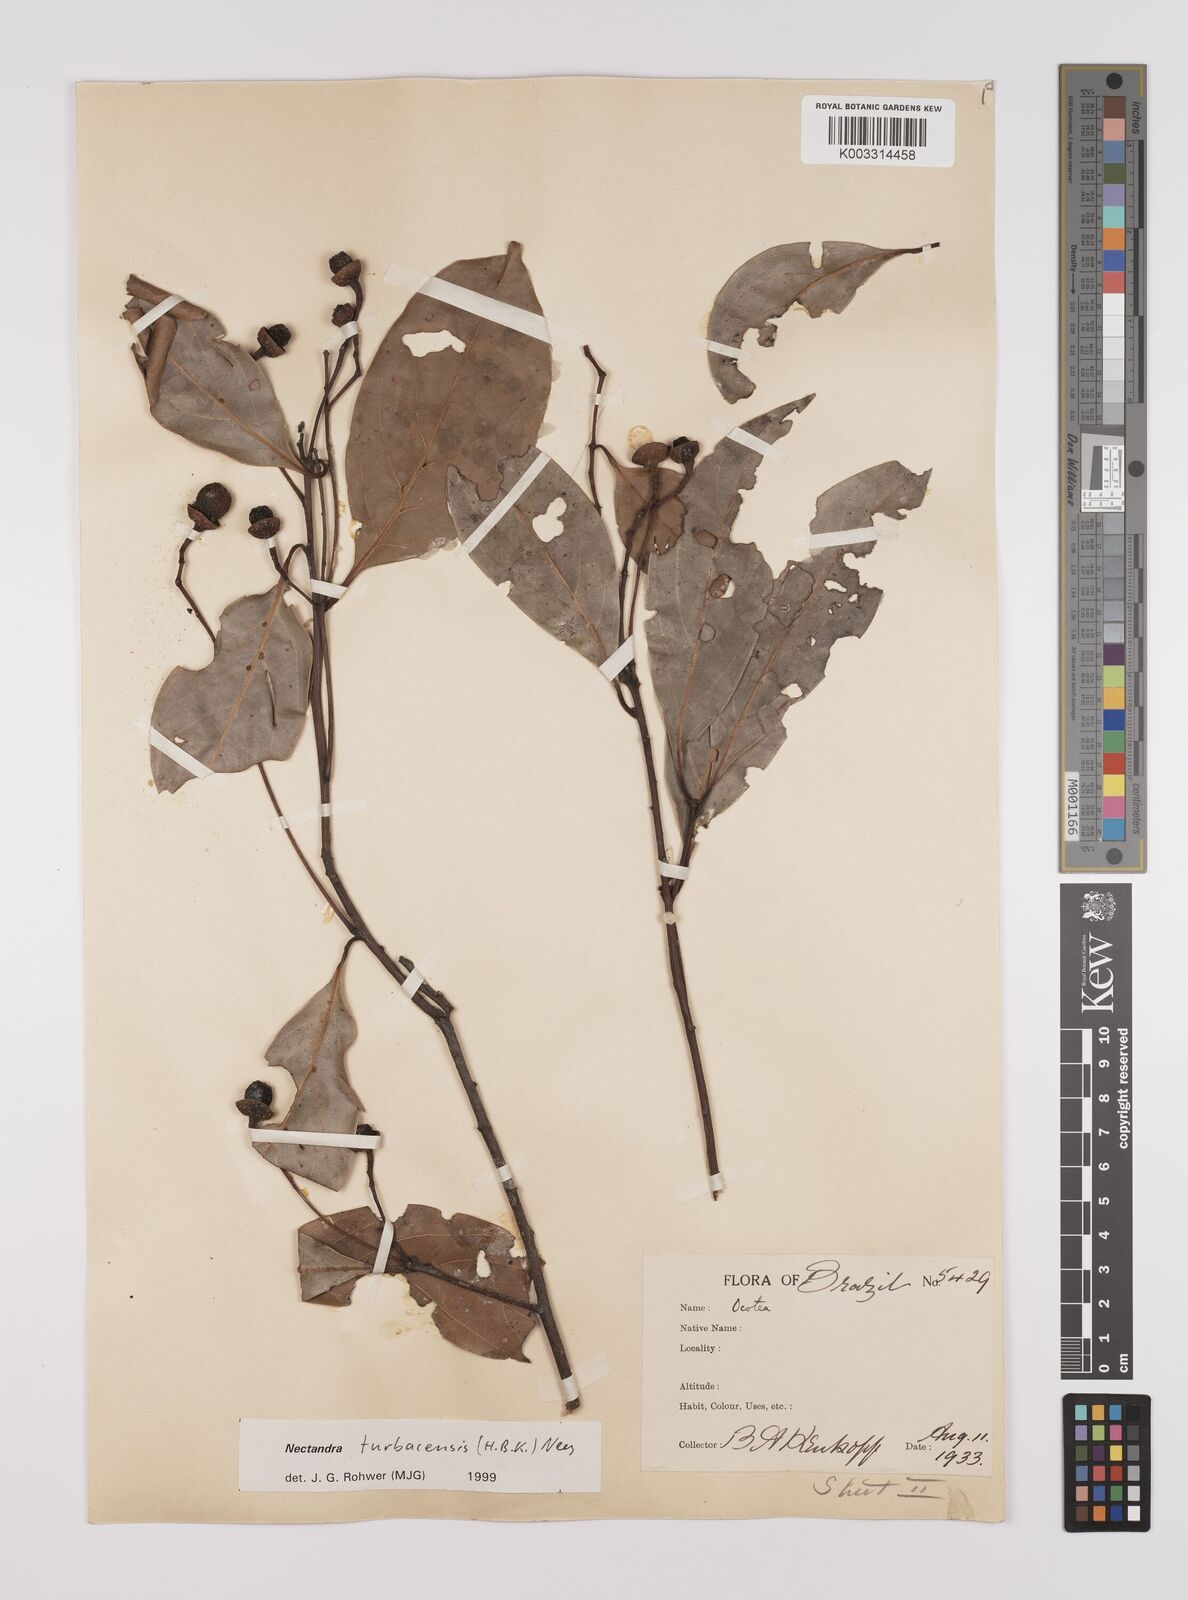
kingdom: Plantae
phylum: Tracheophyta
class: Magnoliopsida
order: Laurales
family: Lauraceae
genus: Nectandra
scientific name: Nectandra turbacensis
